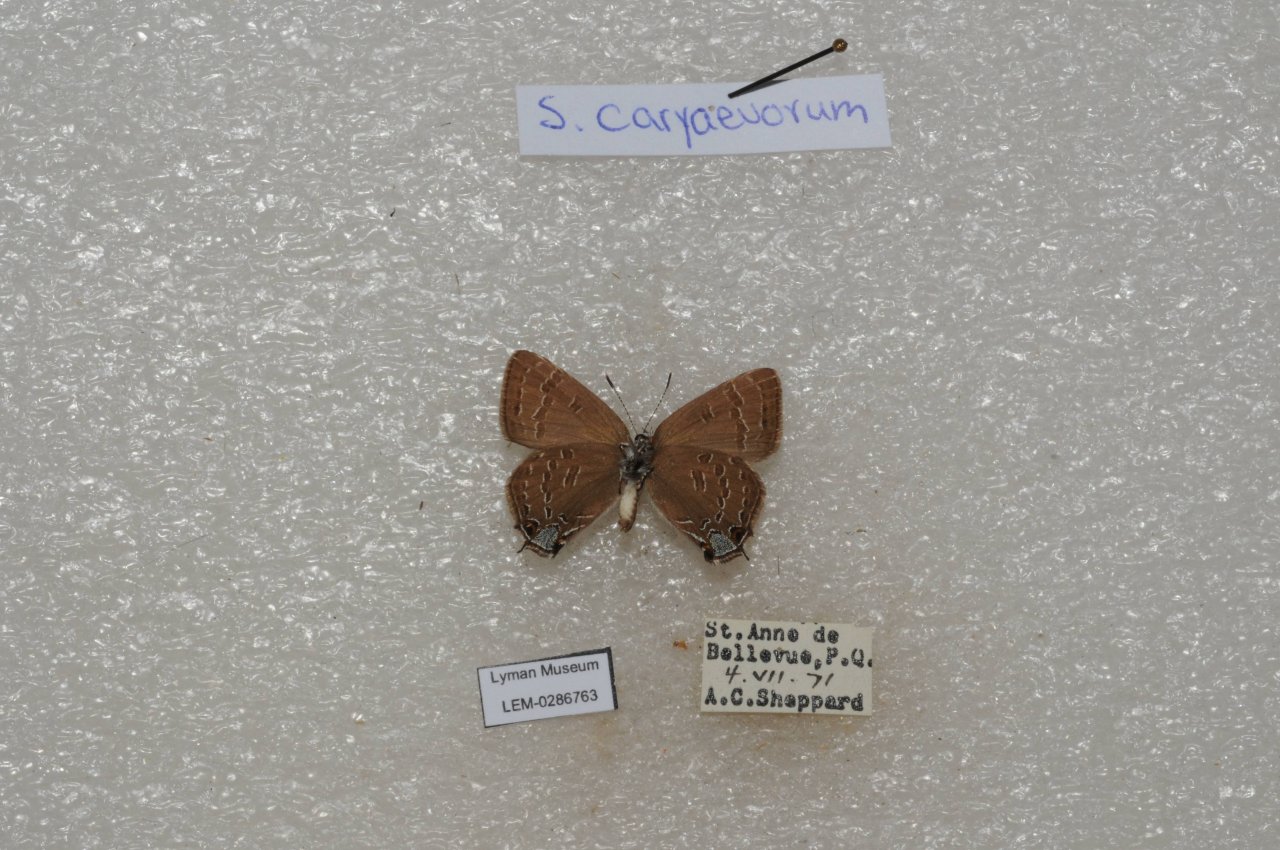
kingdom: Animalia
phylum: Arthropoda
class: Insecta
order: Lepidoptera
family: Lycaenidae
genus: Strymon
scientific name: Strymon caryaevorus
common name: Hickory Hairstreak
